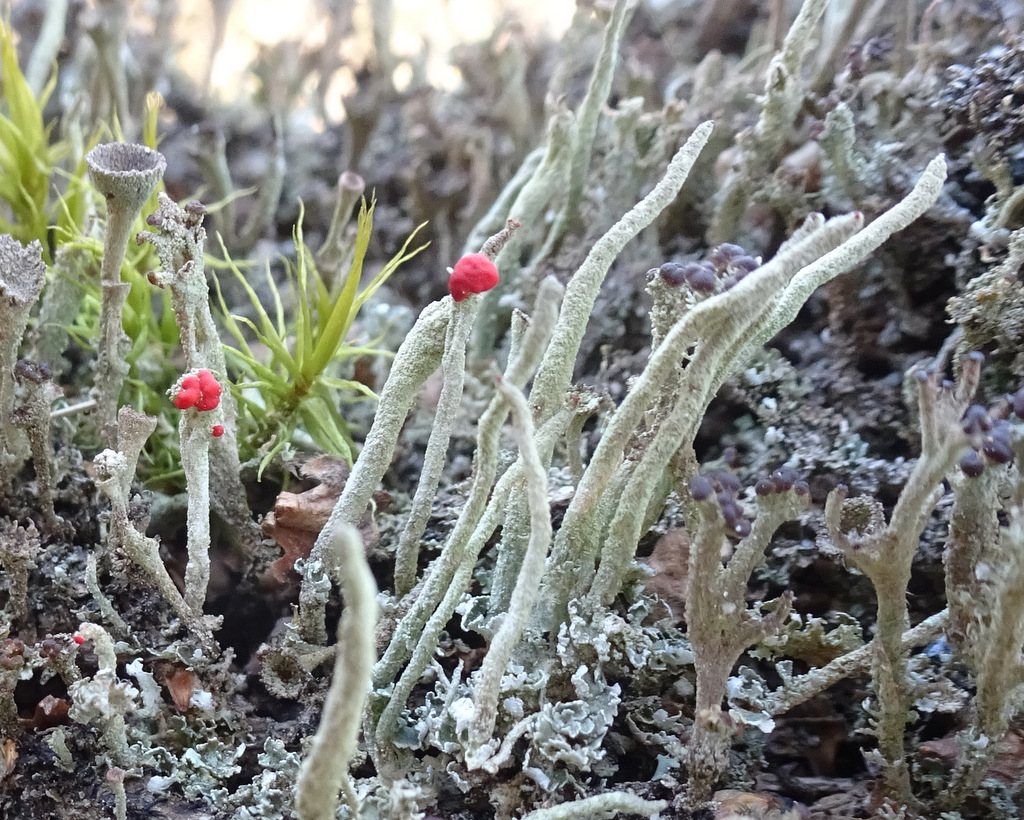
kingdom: Fungi
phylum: Ascomycota
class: Lecanoromycetes
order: Lecanorales
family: Cladoniaceae
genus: Cladonia
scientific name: Cladonia
